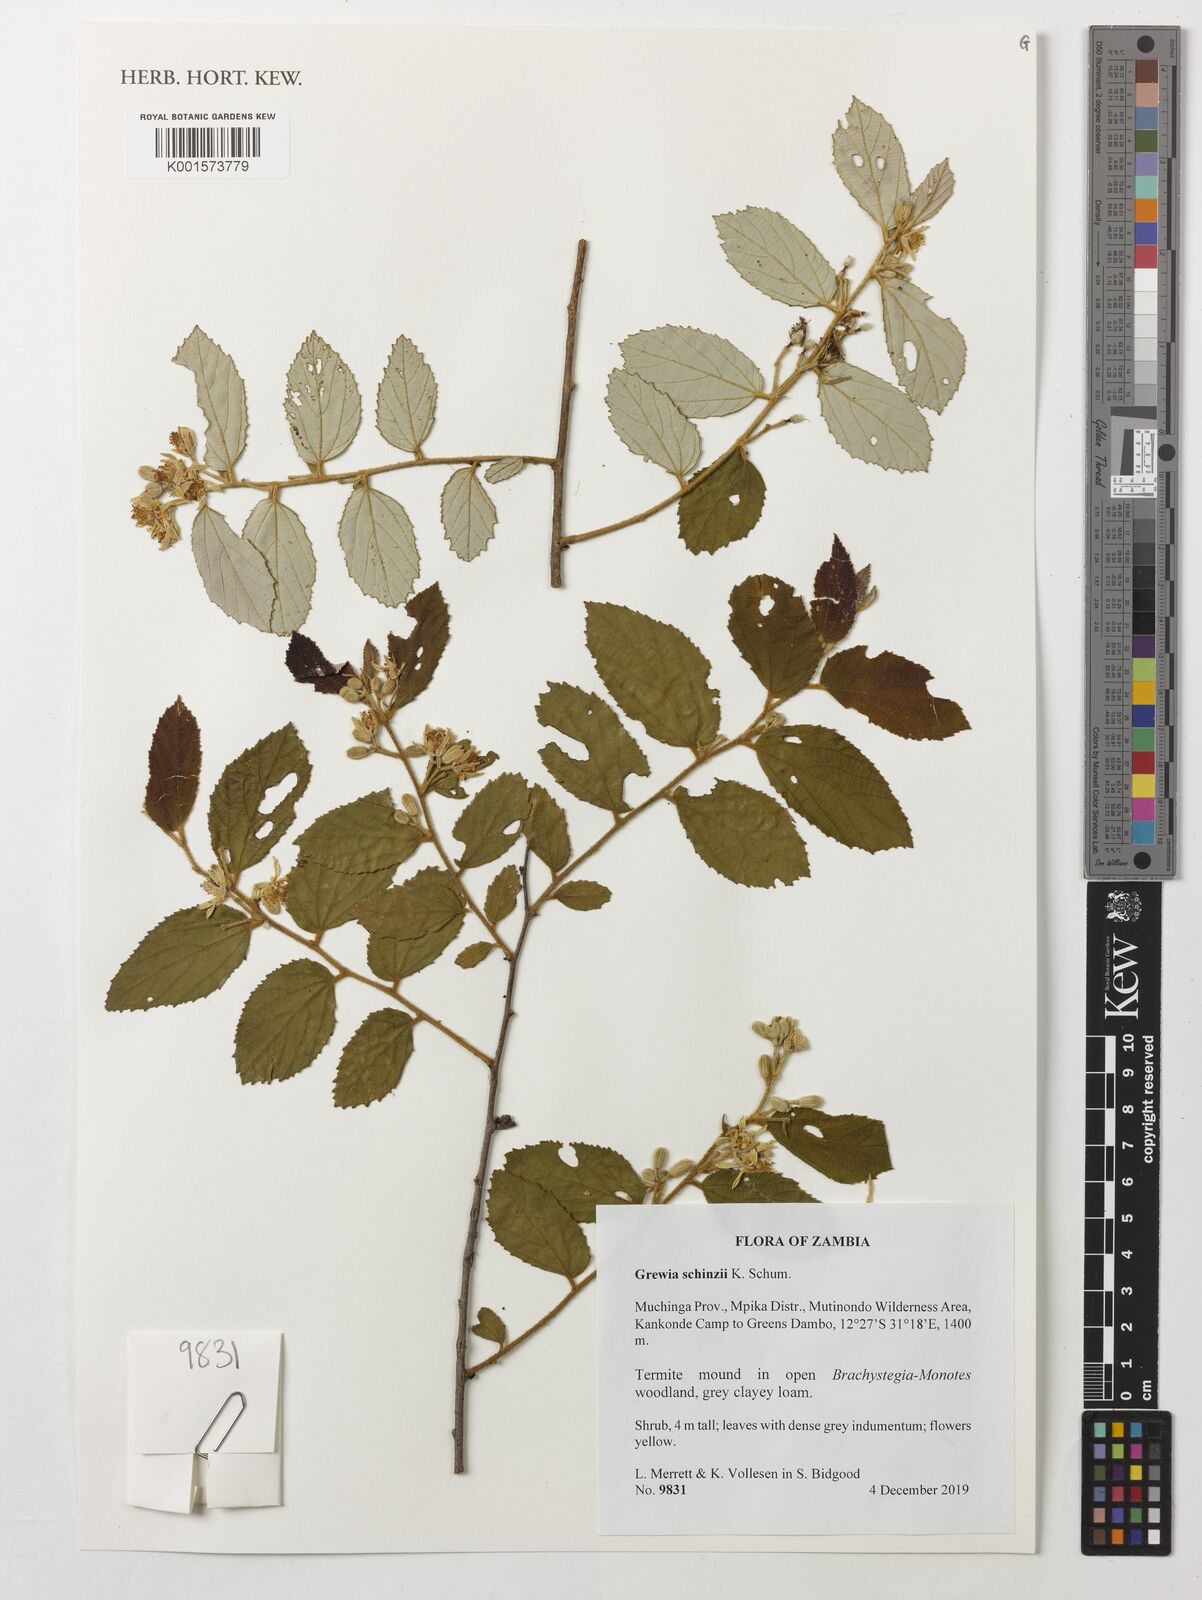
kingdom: Plantae
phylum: Tracheophyta
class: Magnoliopsida
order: Malvales
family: Malvaceae
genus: Grewia
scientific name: Grewia schinzii
